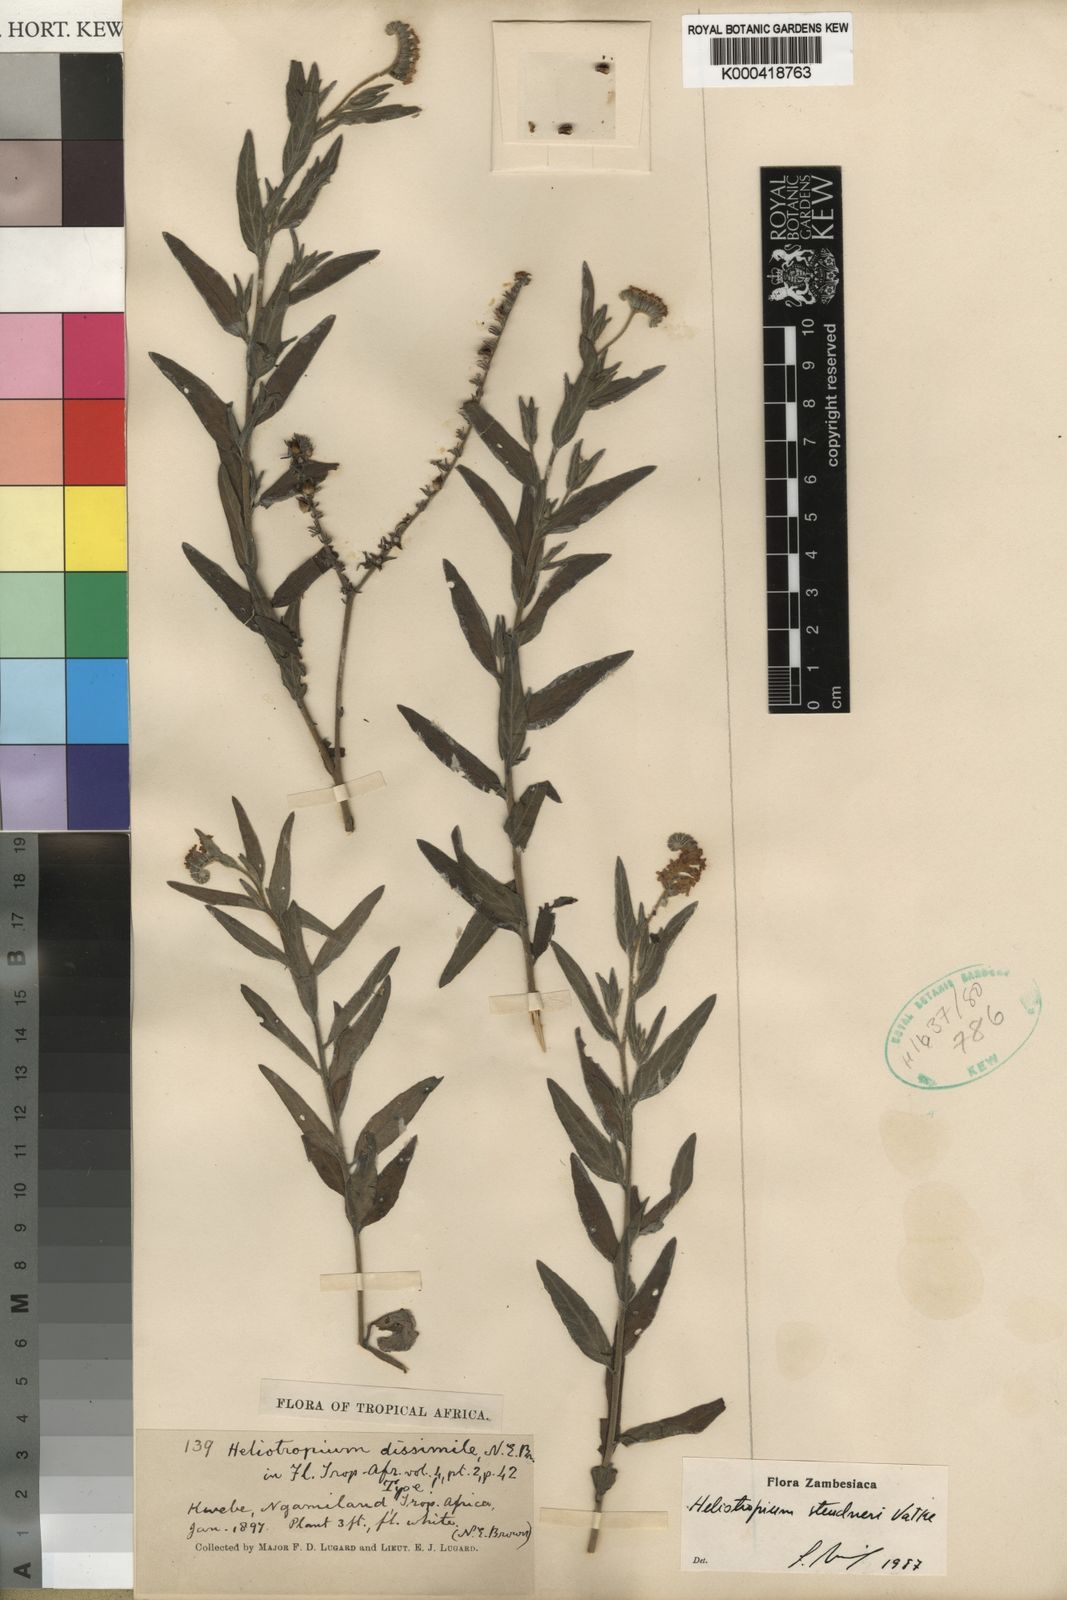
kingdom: Plantae
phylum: Tracheophyta
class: Magnoliopsida
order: Boraginales
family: Heliotropiaceae
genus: Heliotropium
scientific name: Heliotropium steudneri
